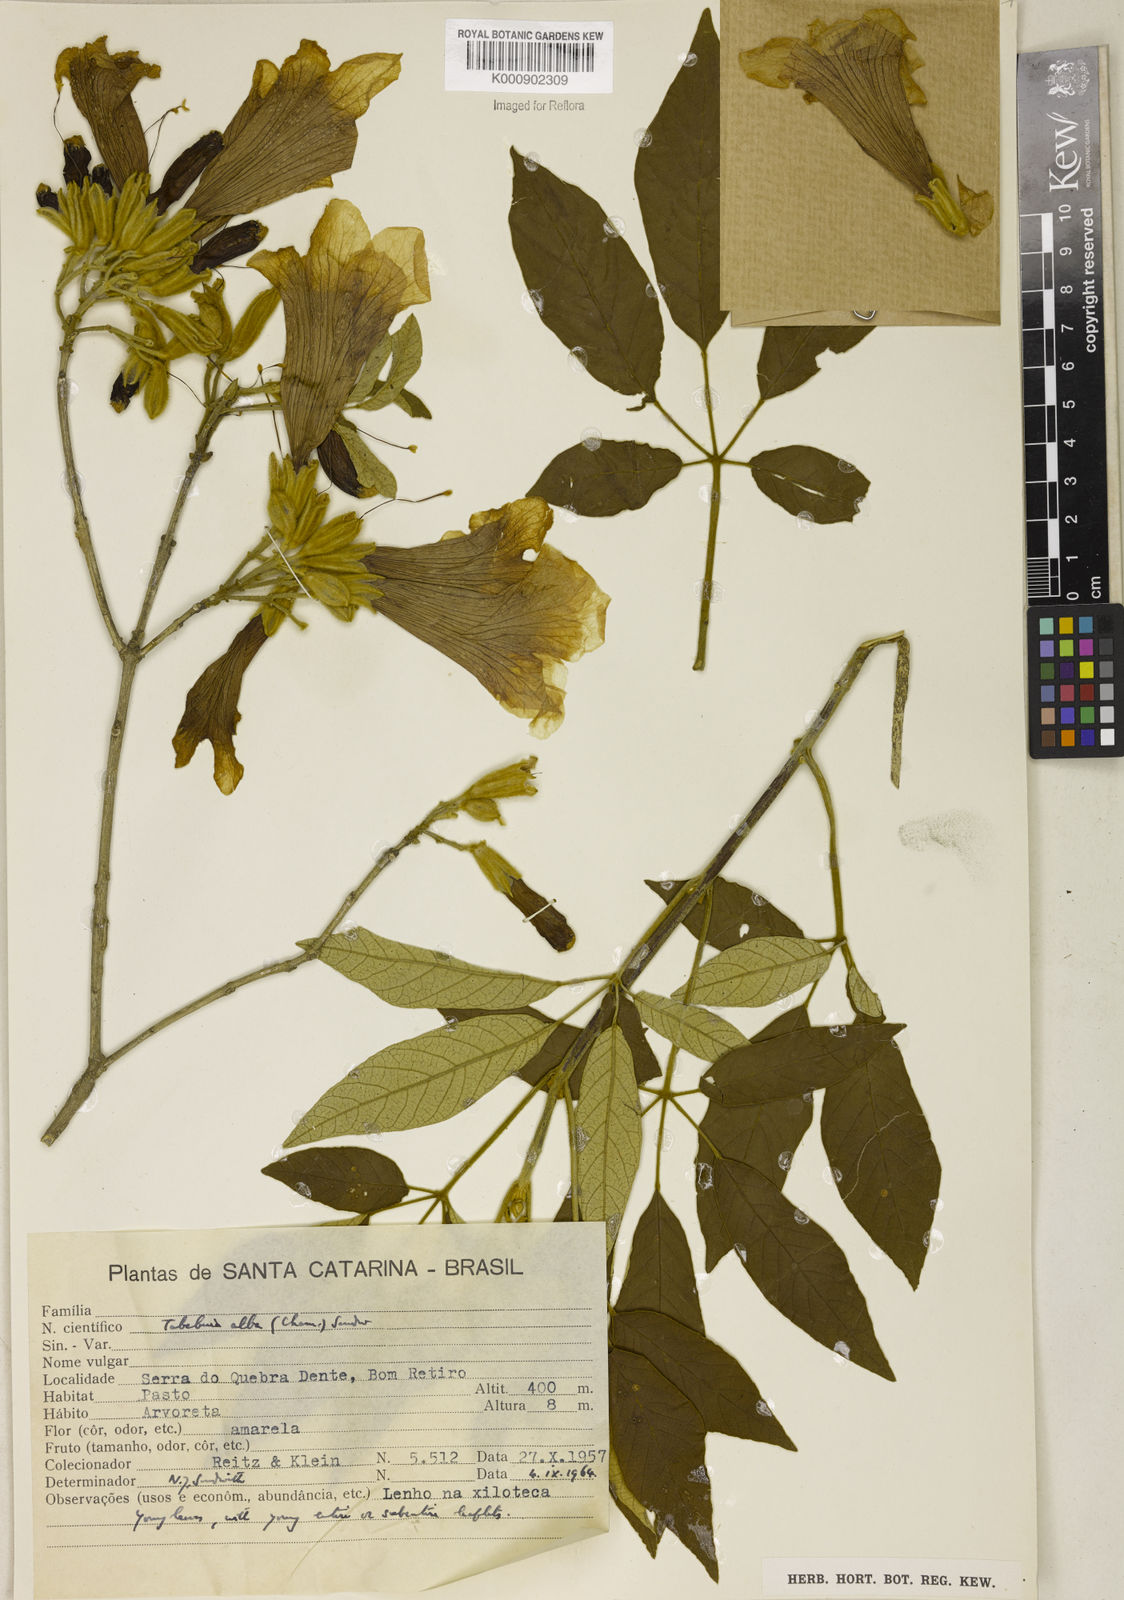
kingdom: Plantae
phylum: Tracheophyta
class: Magnoliopsida
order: Lamiales
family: Bignoniaceae
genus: Handroanthus
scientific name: Handroanthus albus
